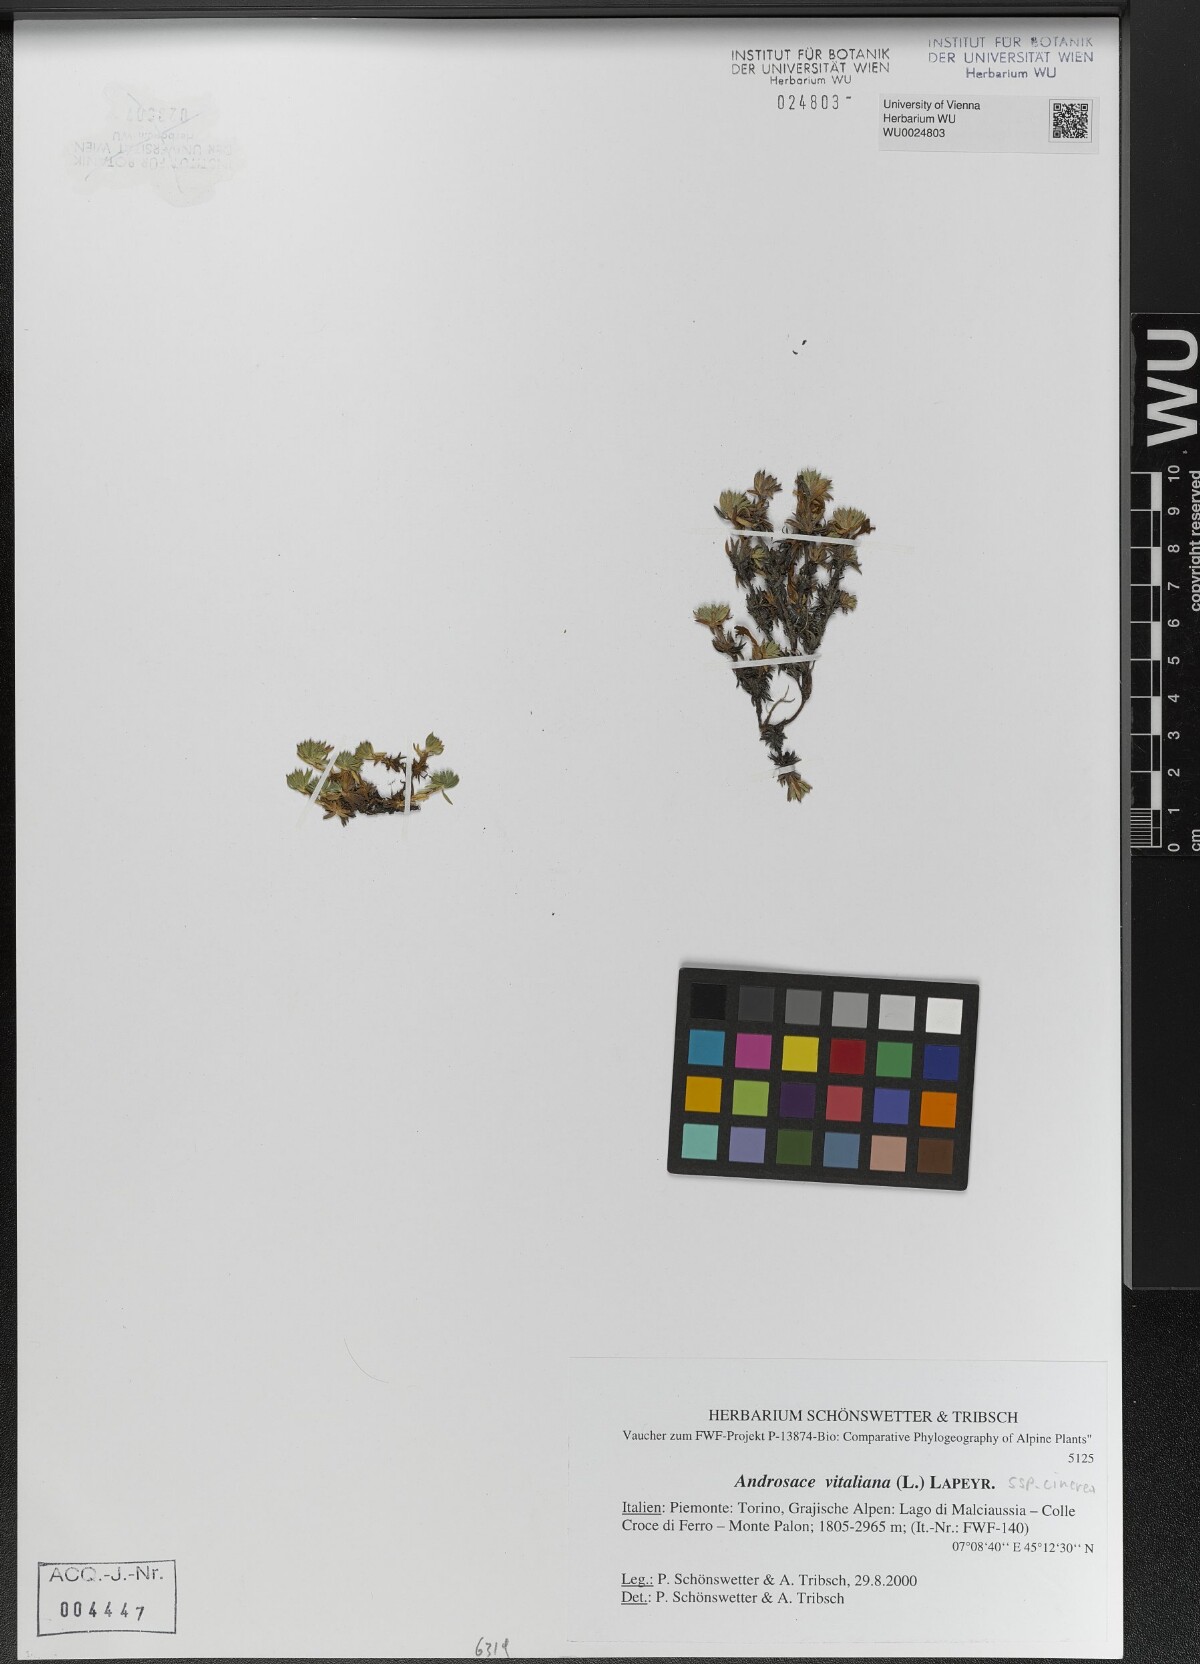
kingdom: Plantae
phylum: Tracheophyta
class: Magnoliopsida
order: Ericales
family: Primulaceae
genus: Androsace
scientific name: Androsace vitaliana
